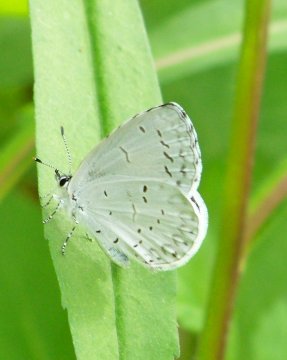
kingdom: Animalia
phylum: Arthropoda
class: Insecta
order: Lepidoptera
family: Lycaenidae
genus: Celastrina
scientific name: Celastrina neglectamajor
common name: Appalachian Azure
